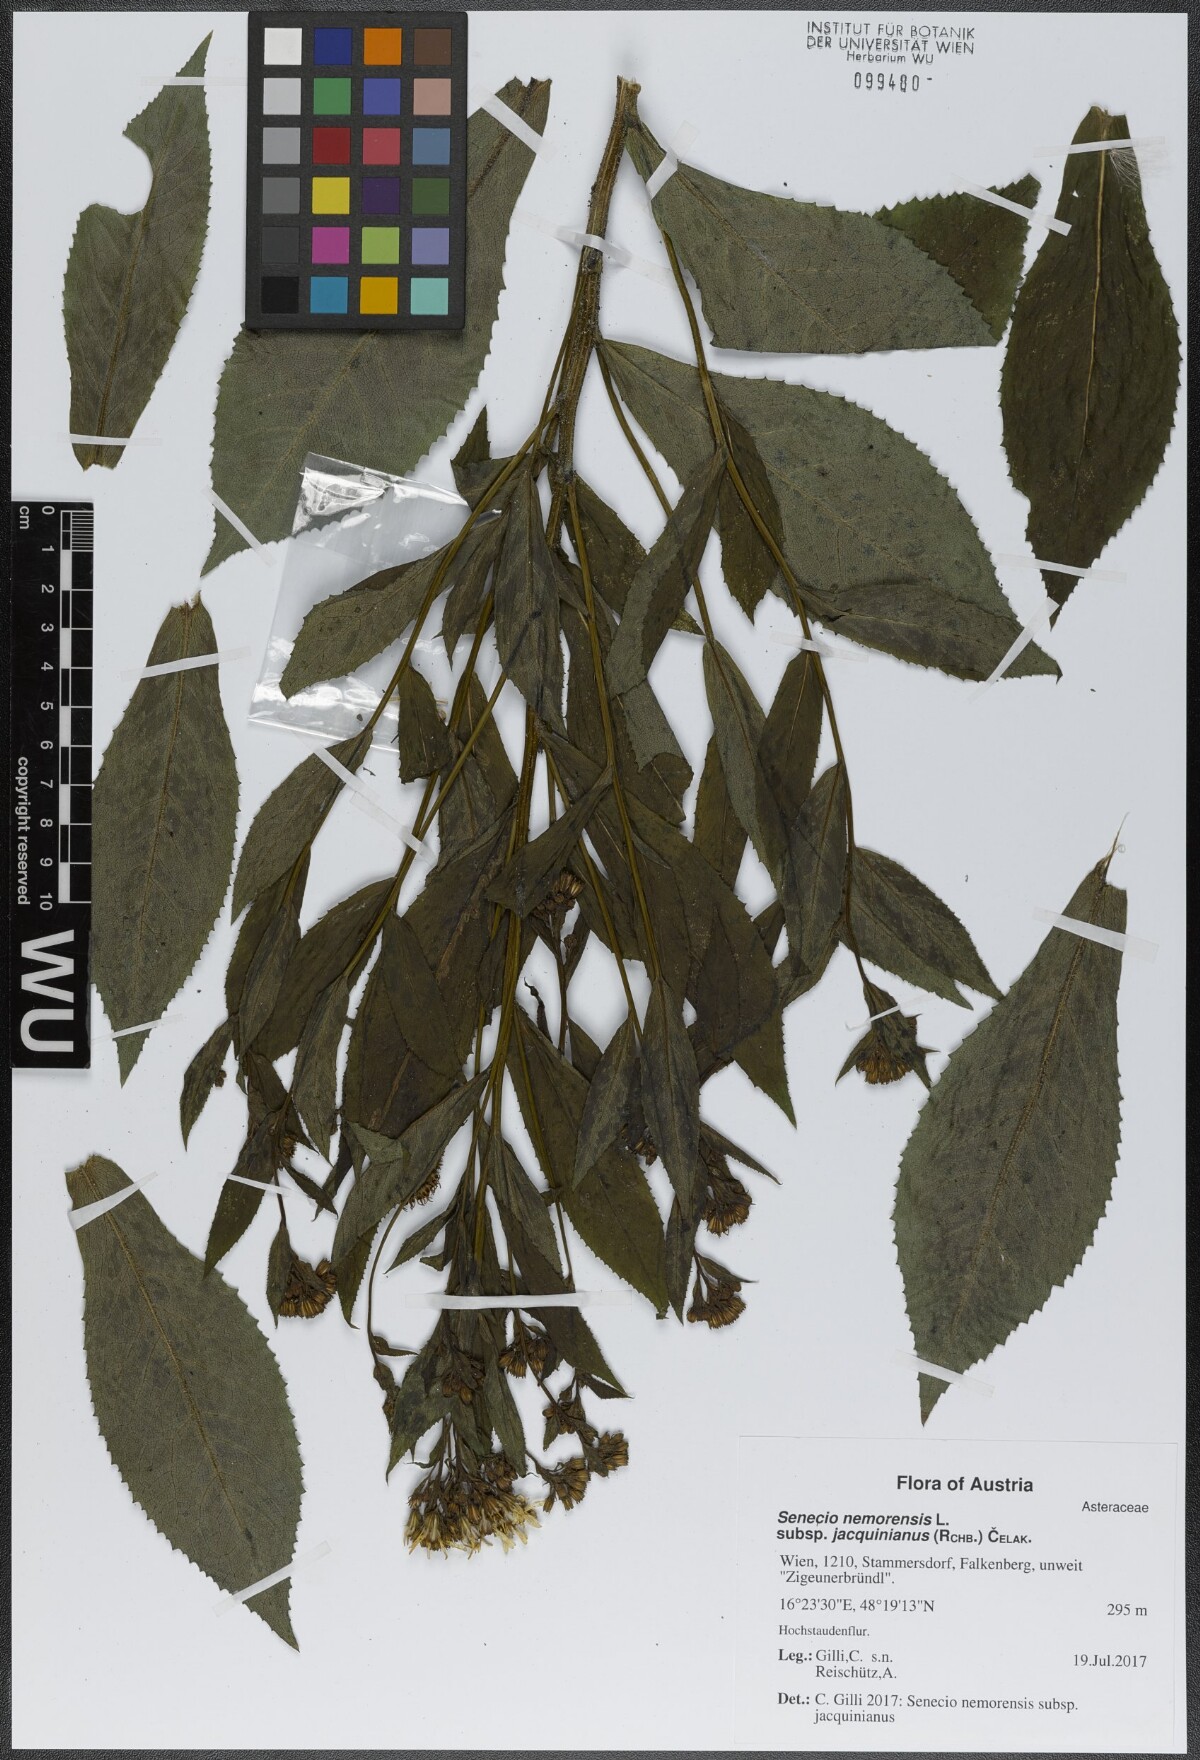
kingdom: Plantae
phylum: Tracheophyta
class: Magnoliopsida
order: Asterales
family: Asteraceae
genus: Senecio
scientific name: Senecio germanicus
